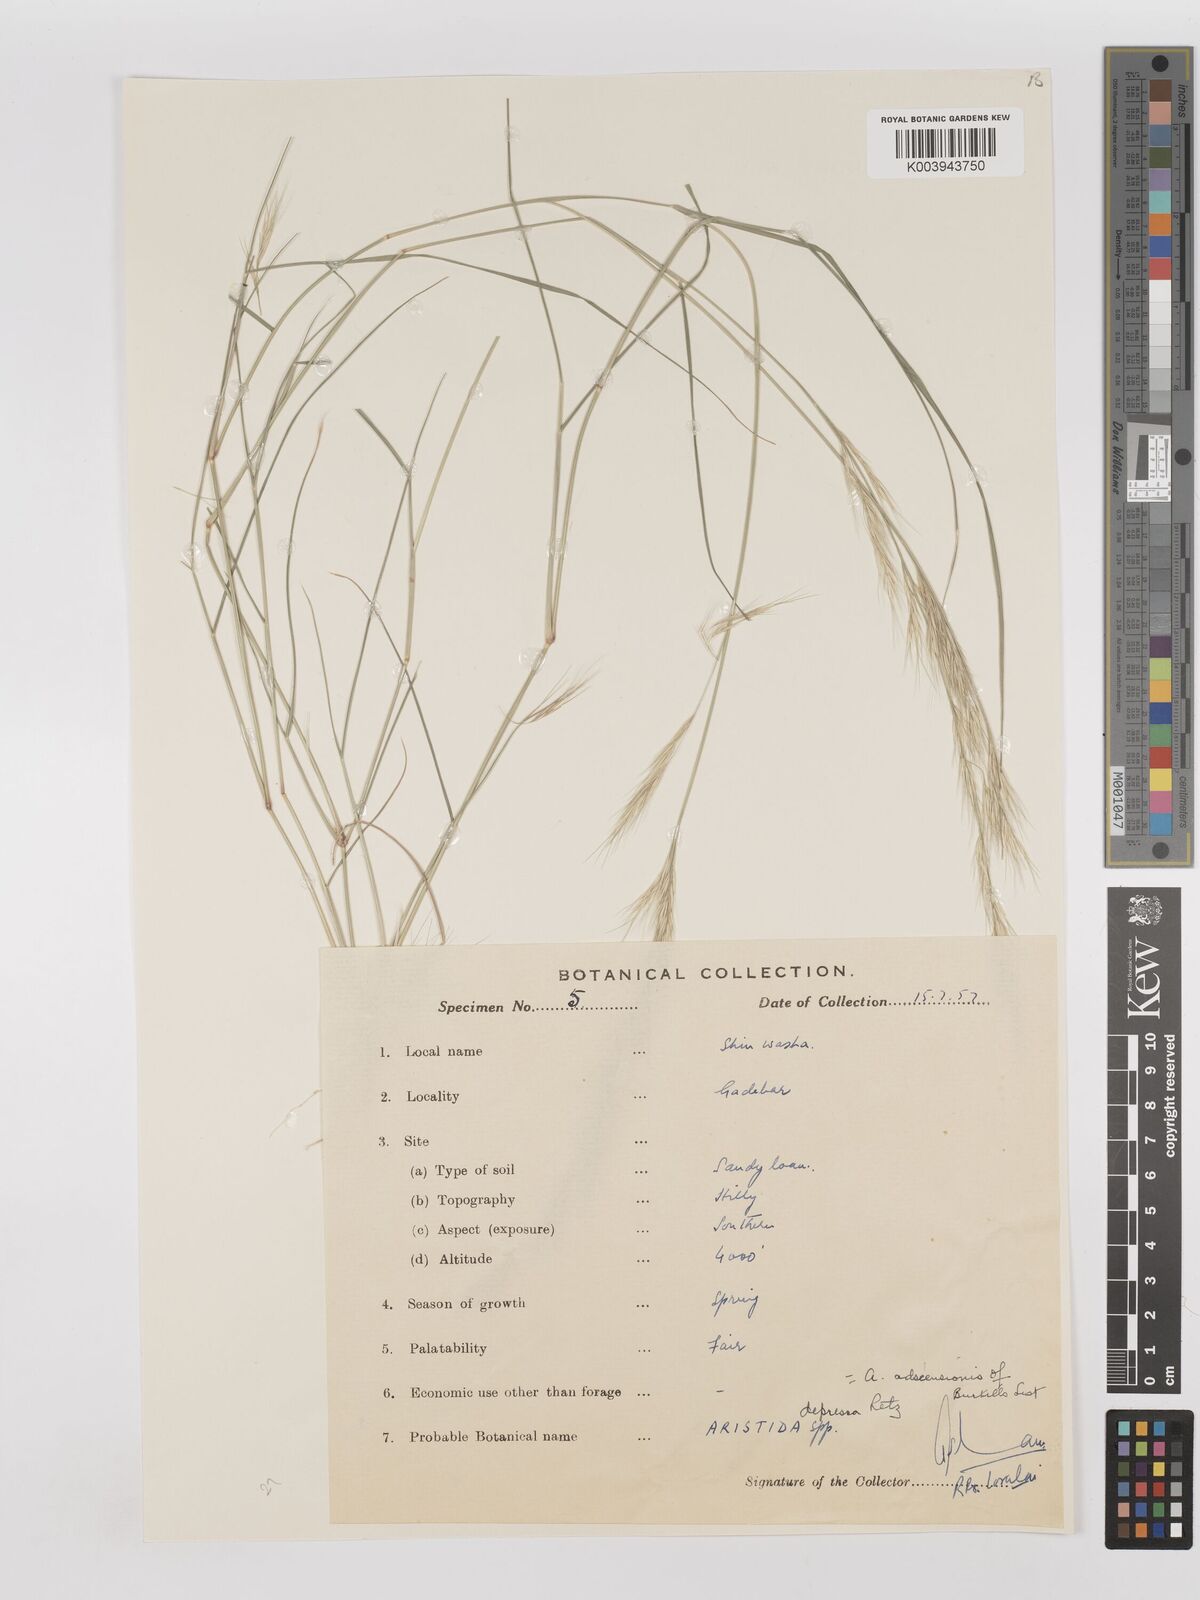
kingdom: Plantae
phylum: Tracheophyta
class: Liliopsida
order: Poales
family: Poaceae
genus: Aristida
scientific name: Aristida adscensionis
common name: Sixweeks threeawn
